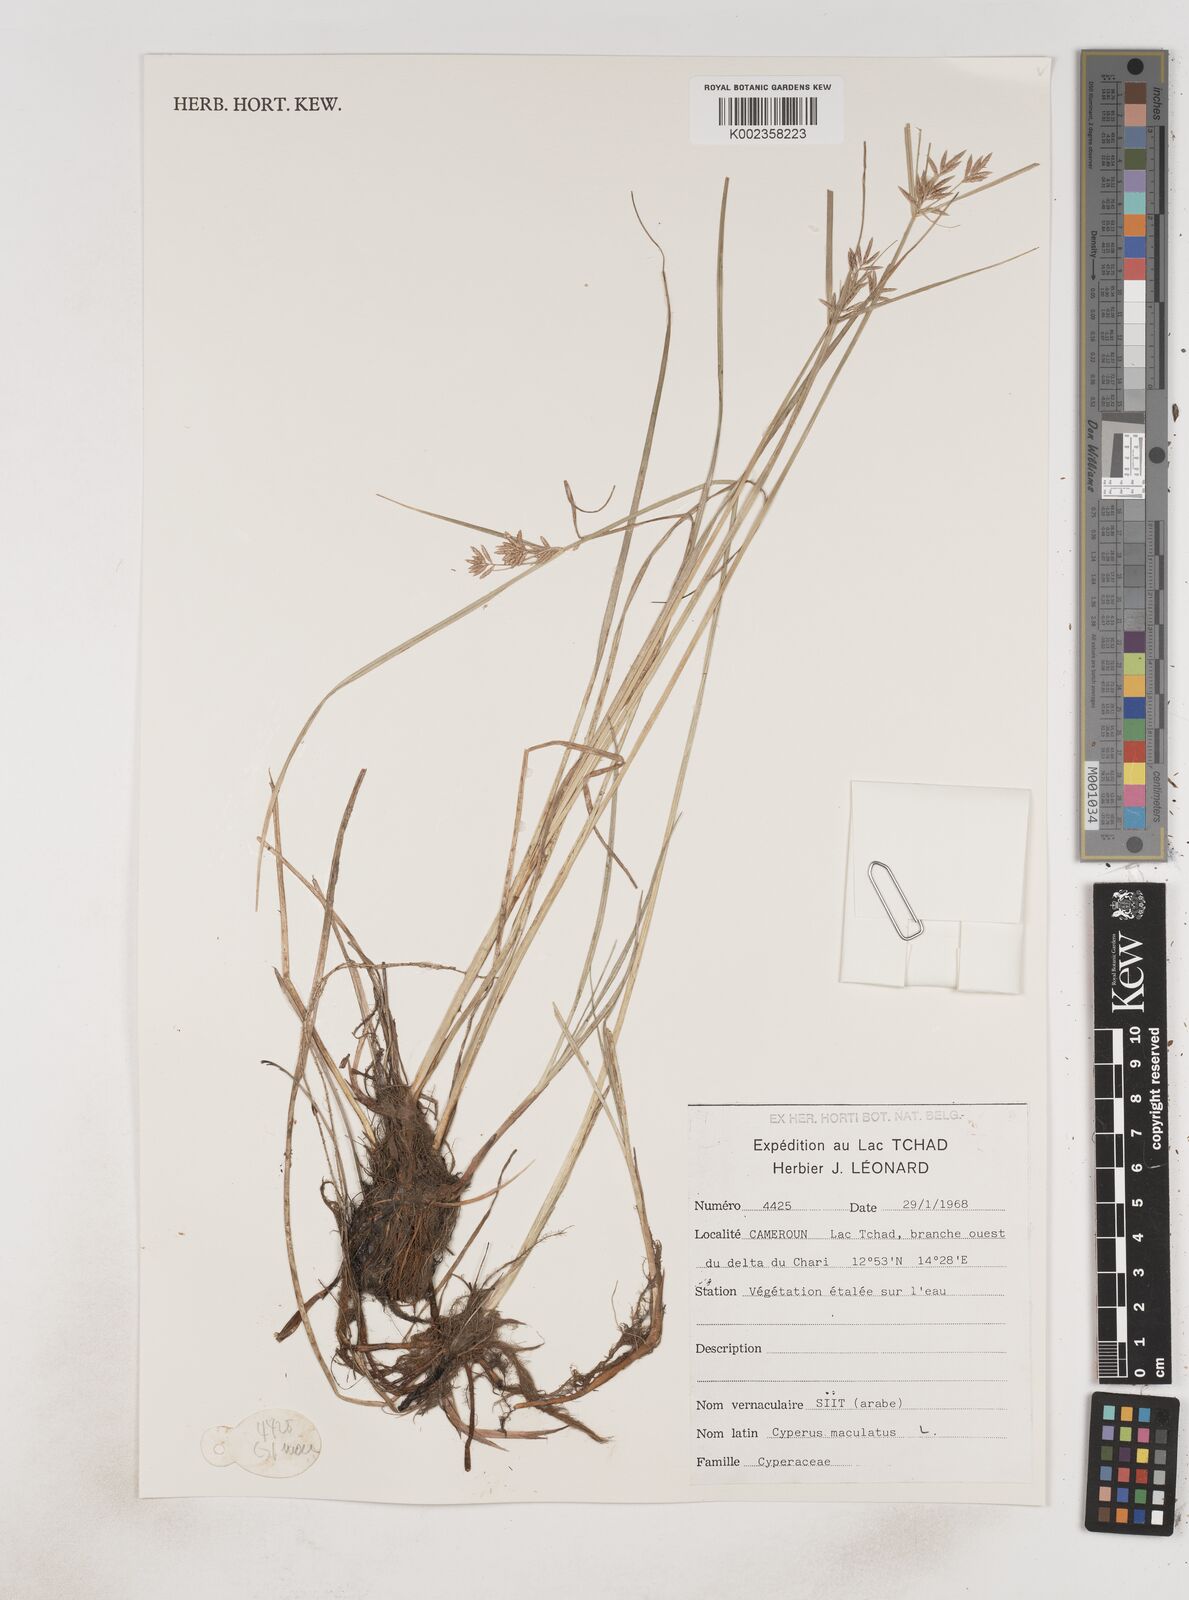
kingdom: Plantae
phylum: Tracheophyta
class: Liliopsida
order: Poales
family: Cyperaceae
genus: Cyperus
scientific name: Cyperus maculatus
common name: Maculated sedge
